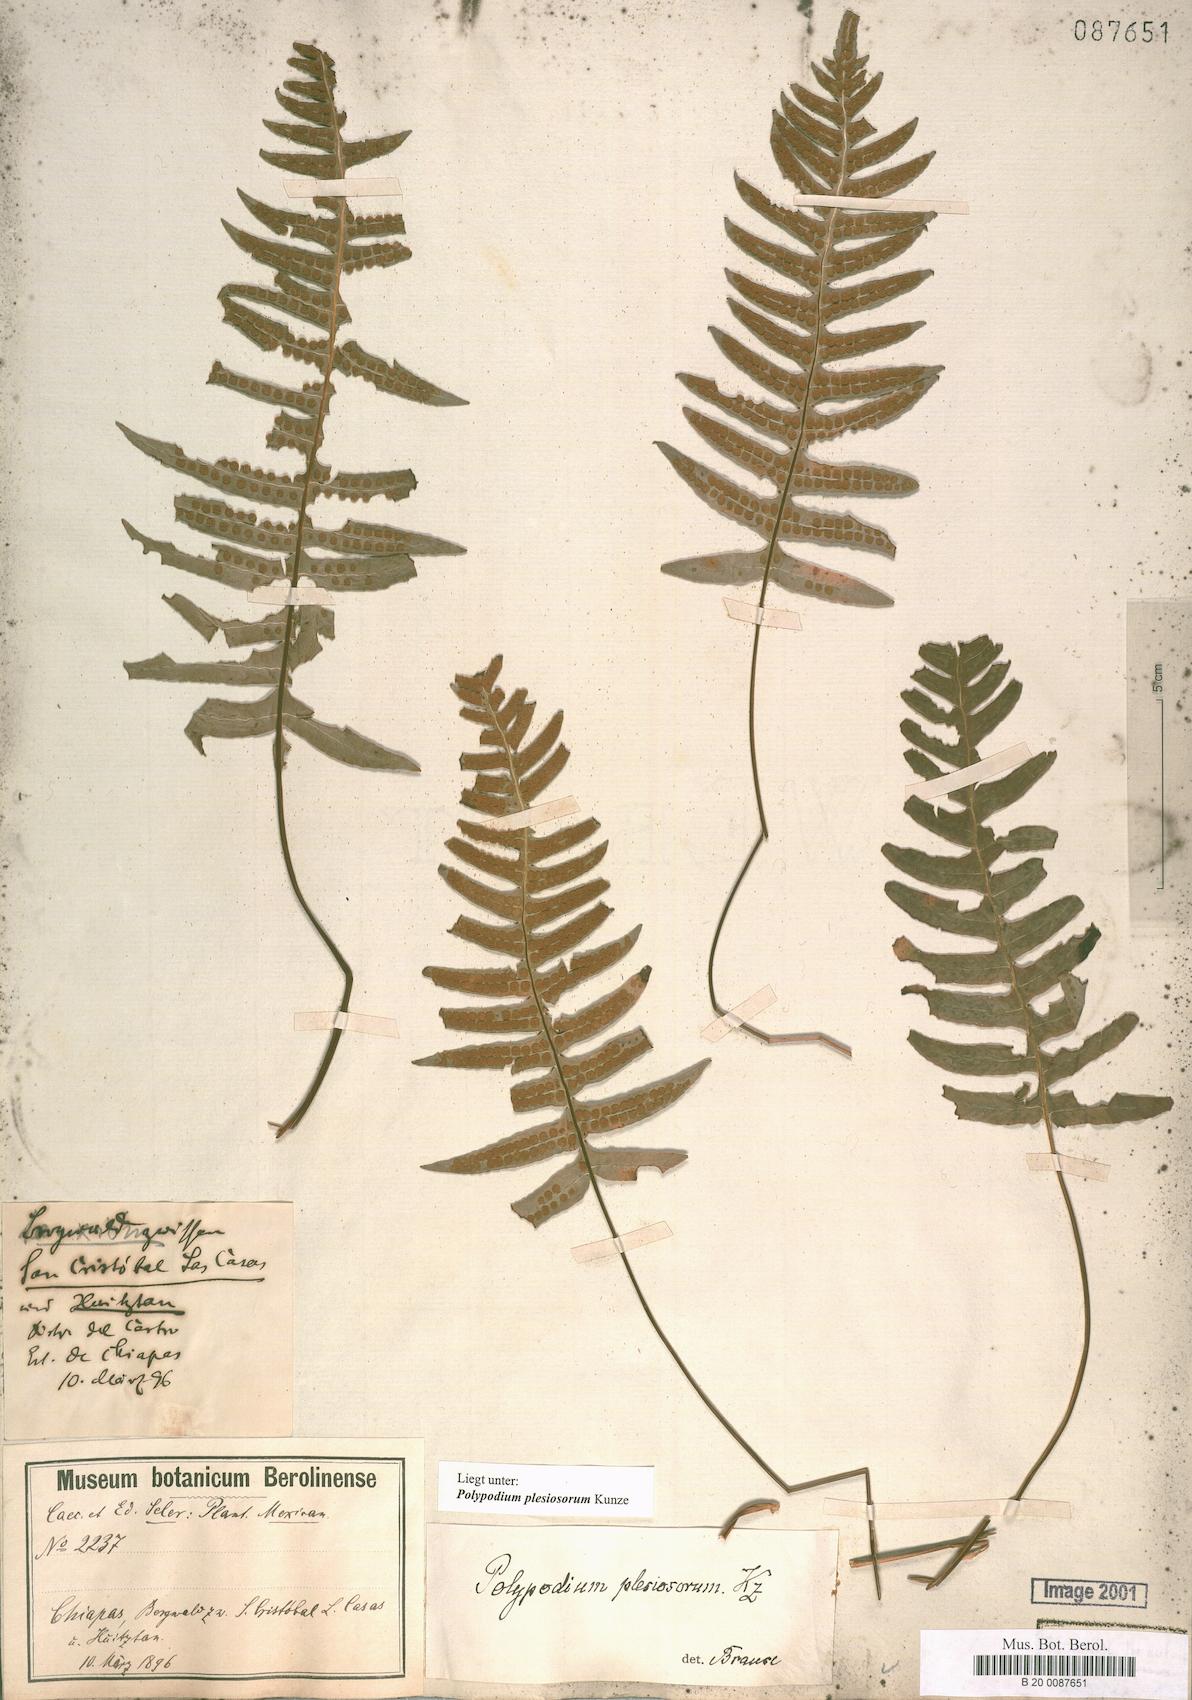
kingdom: Plantae
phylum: Tracheophyta
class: Polypodiopsida
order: Polypodiales
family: Polypodiaceae
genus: Polypodium
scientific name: Polypodium plesiosorum
